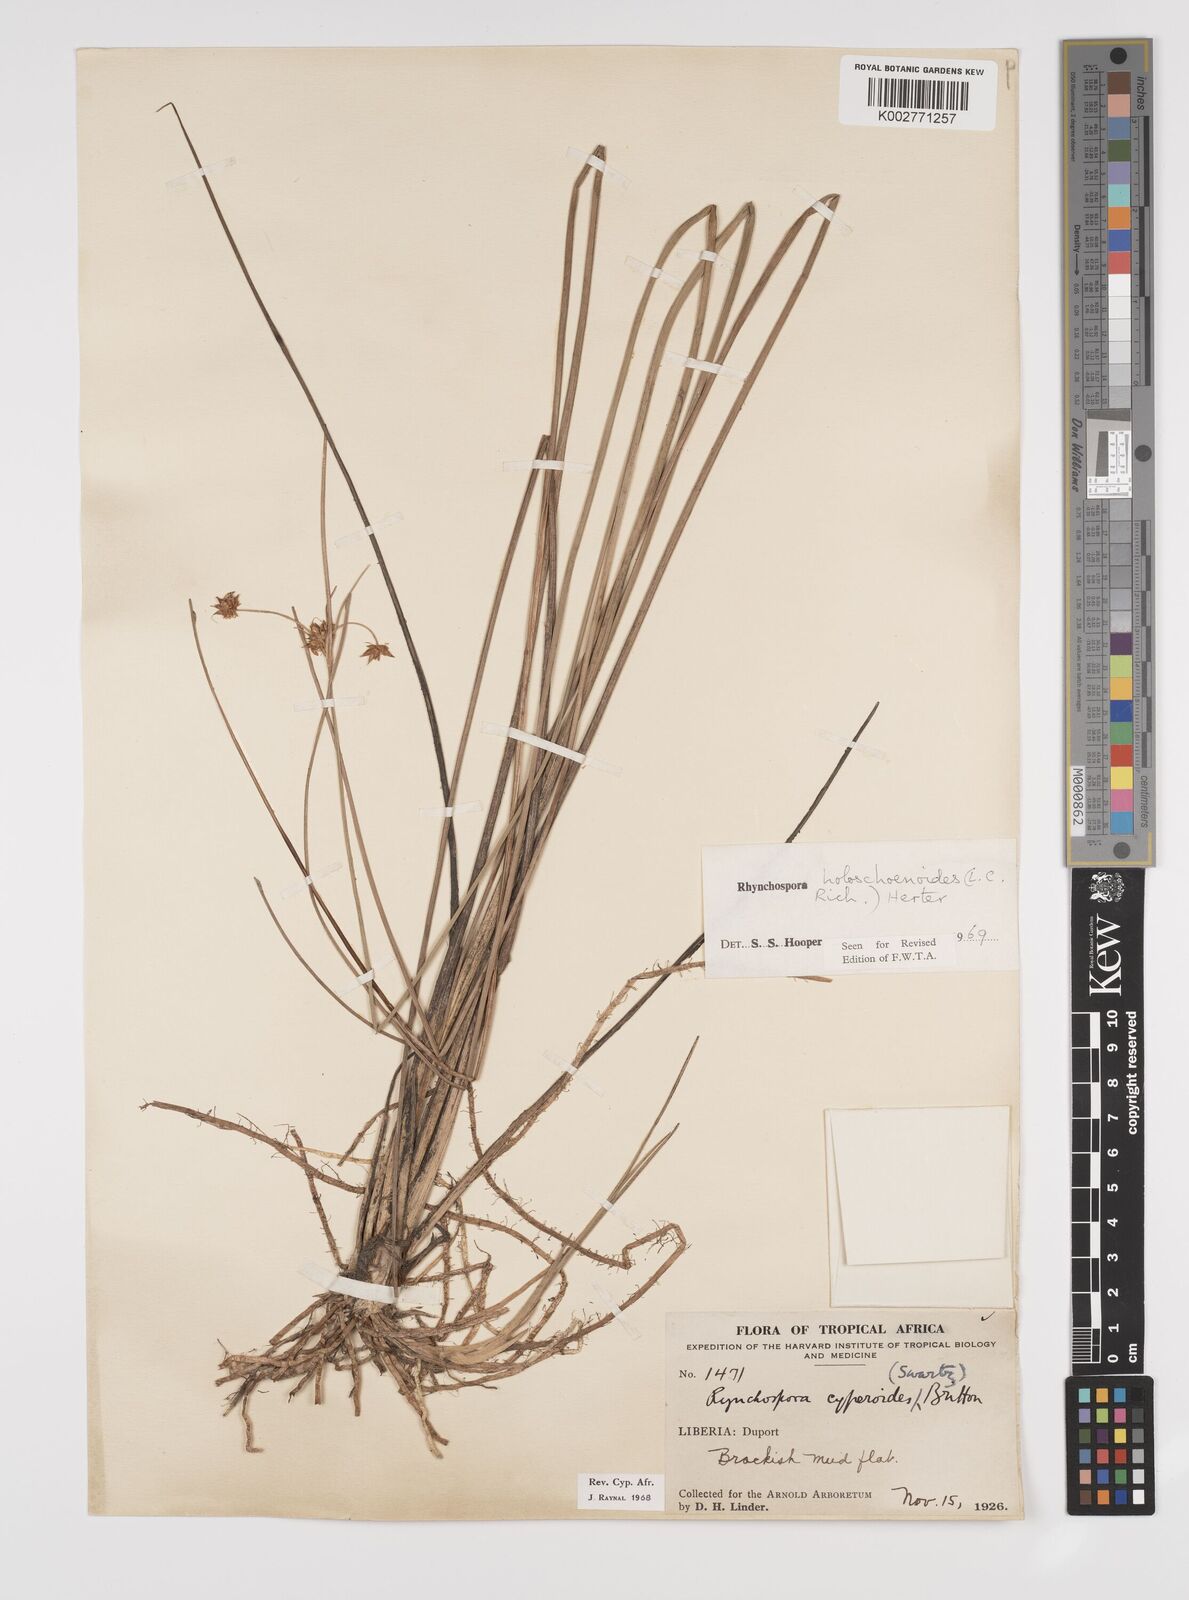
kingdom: Plantae
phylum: Tracheophyta
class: Liliopsida
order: Poales
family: Cyperaceae
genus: Rhynchospora
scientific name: Rhynchospora holoschoenoides
